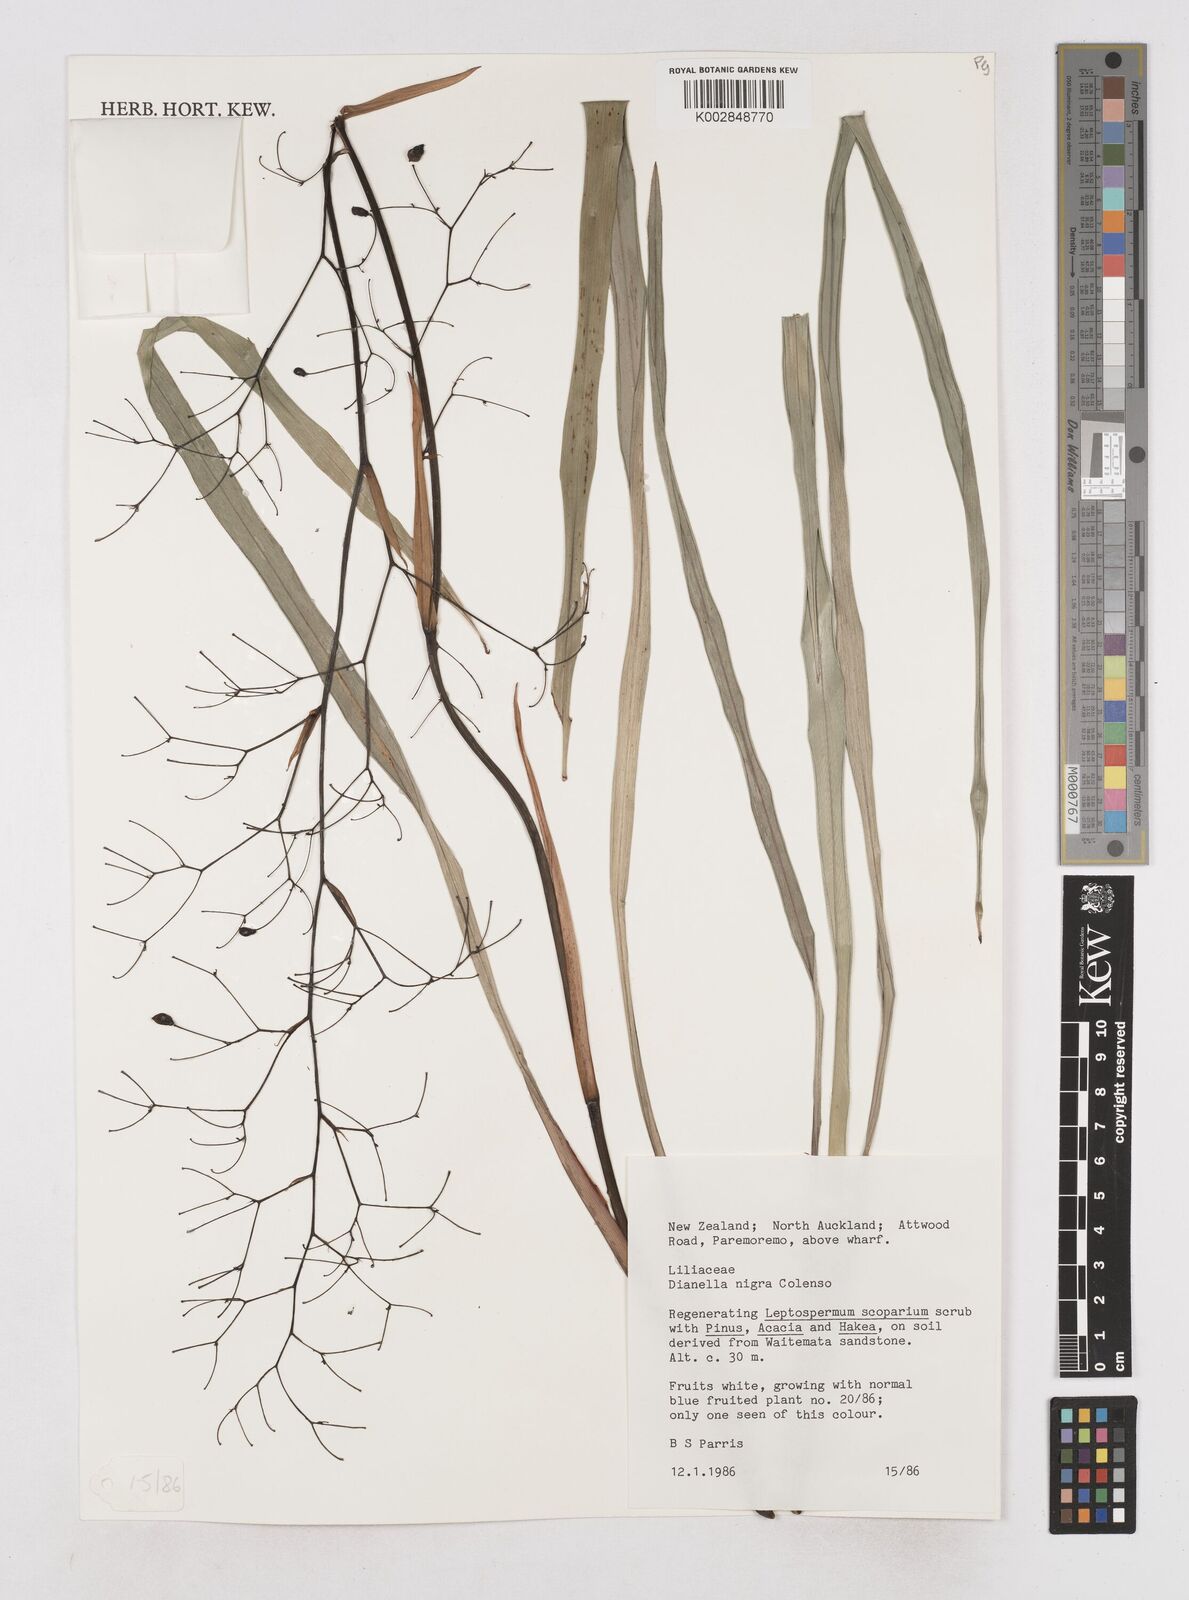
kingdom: Plantae
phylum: Tracheophyta
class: Liliopsida
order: Asparagales
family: Asphodelaceae
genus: Dianella
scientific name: Dianella nigra
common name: New zealand-blueberry
